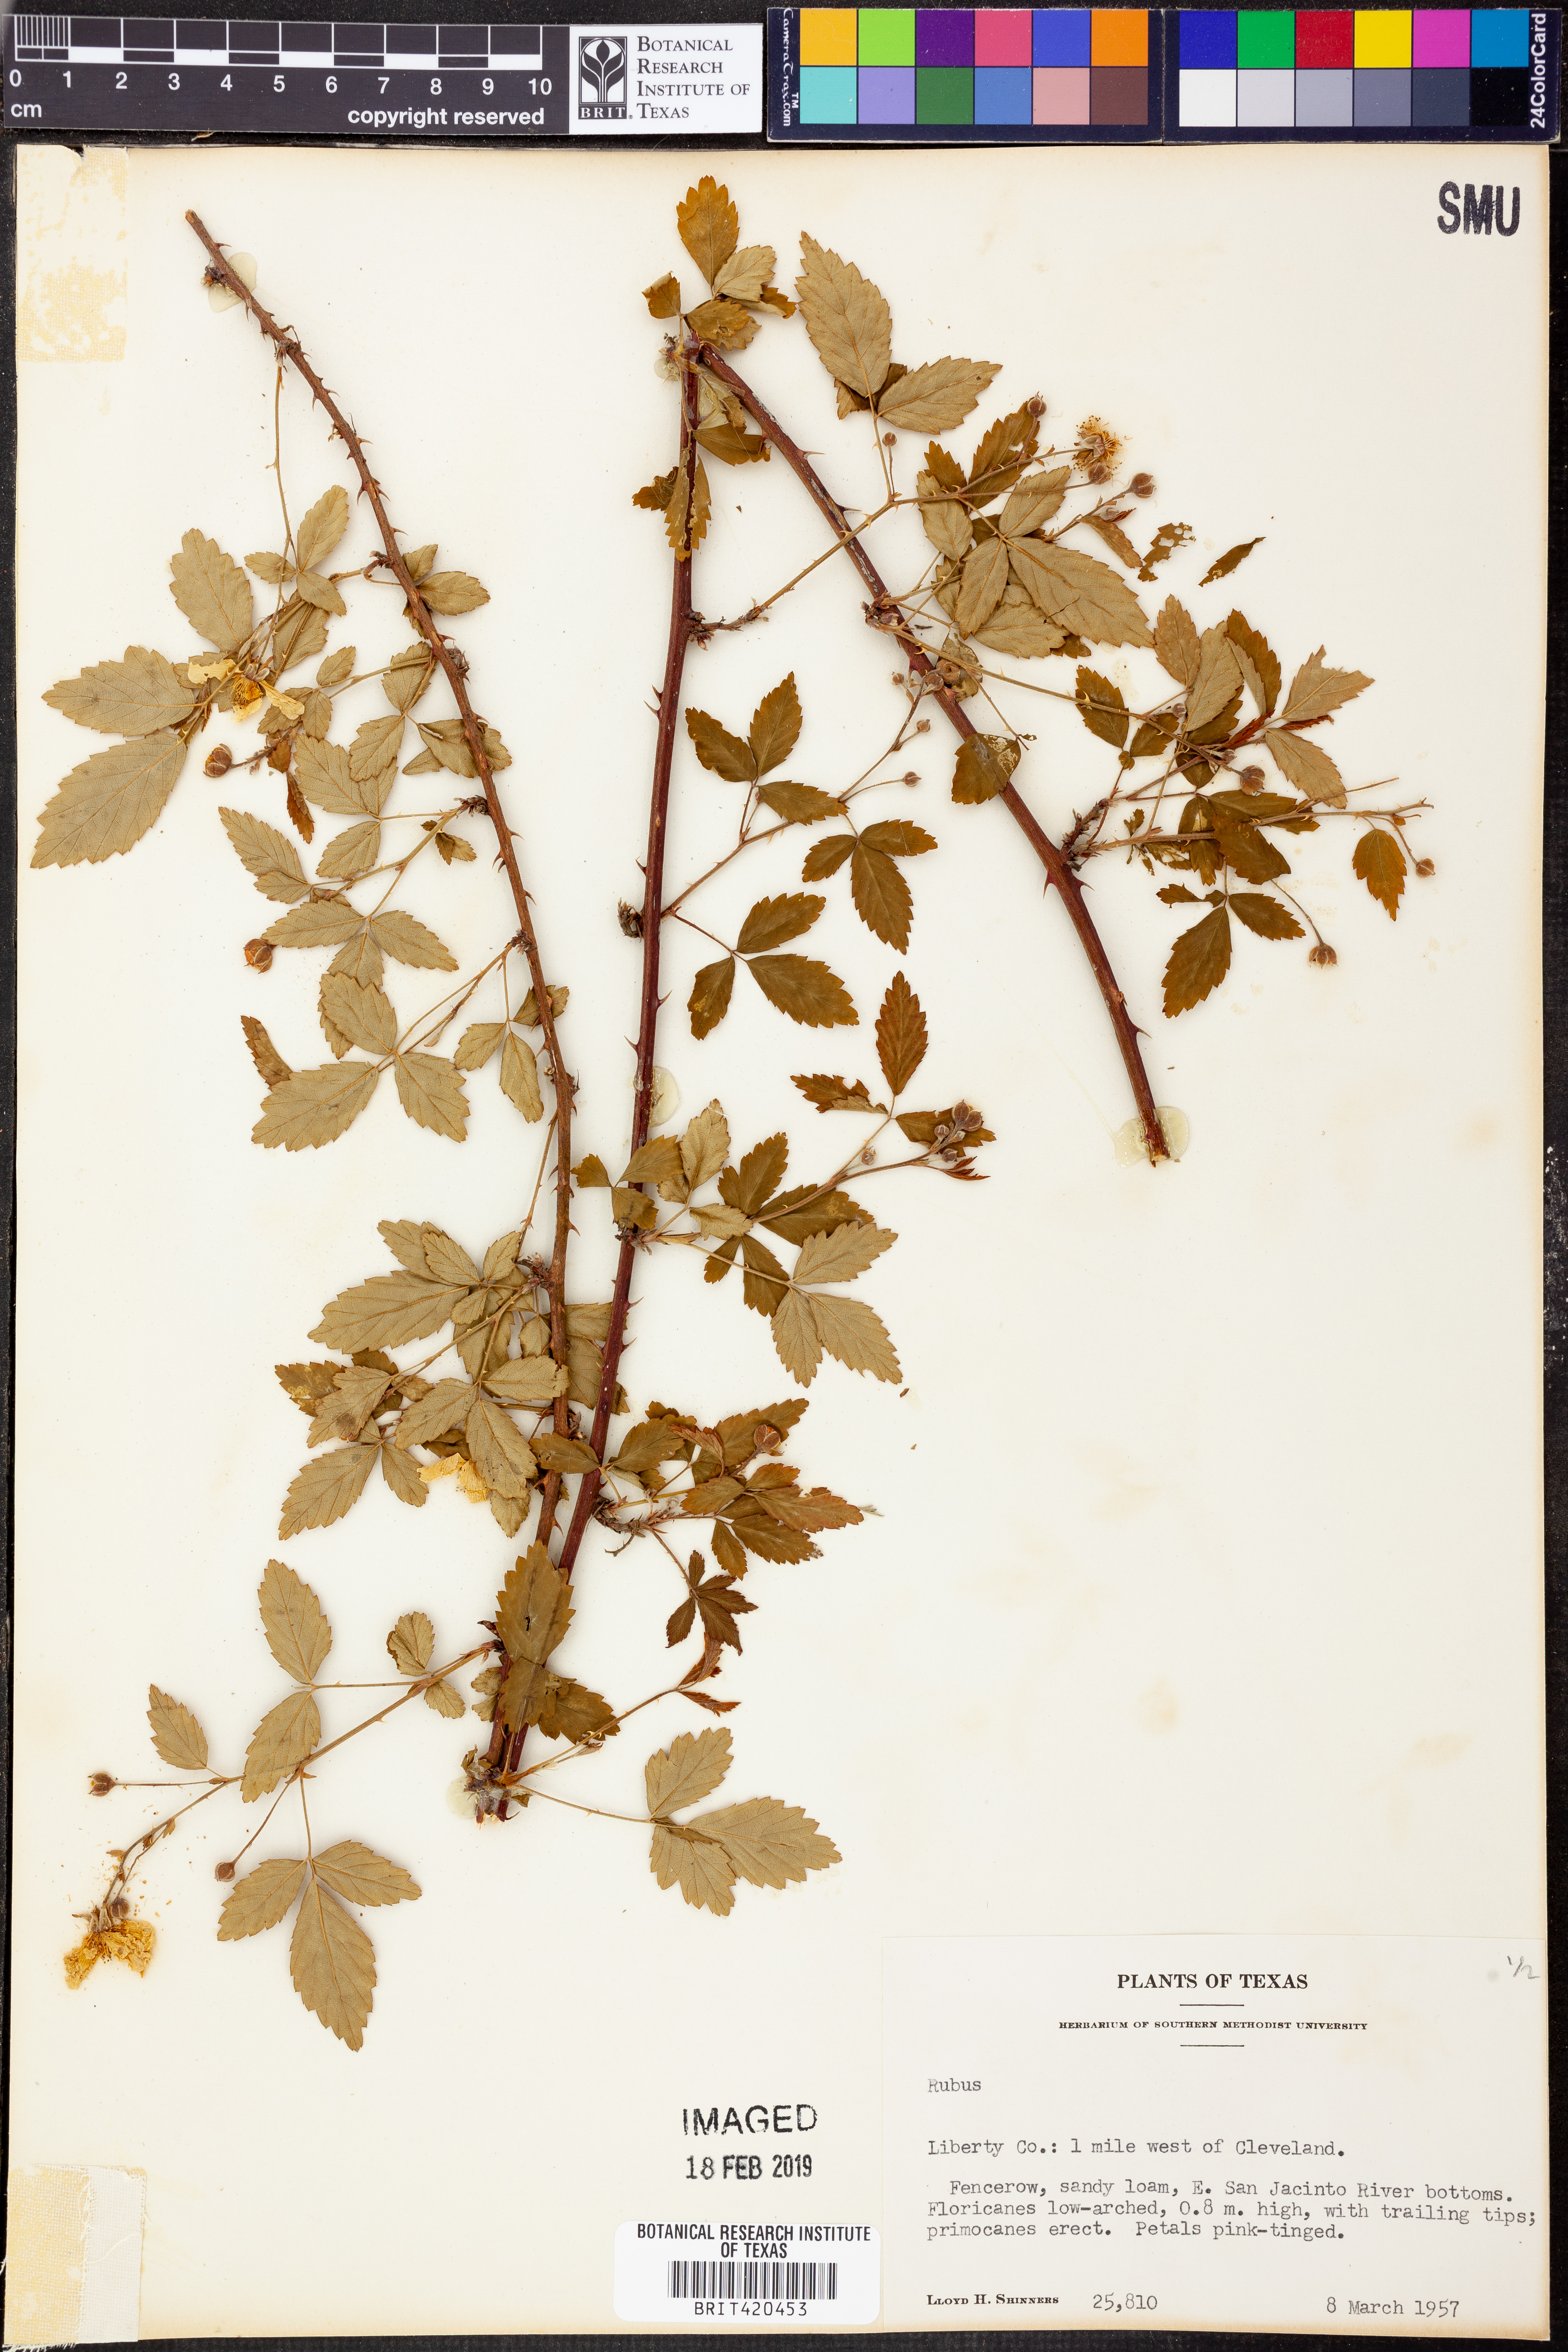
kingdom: Plantae
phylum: Tracheophyta
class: Magnoliopsida
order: Rosales
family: Rosaceae
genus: Rubus
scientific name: Rubus
